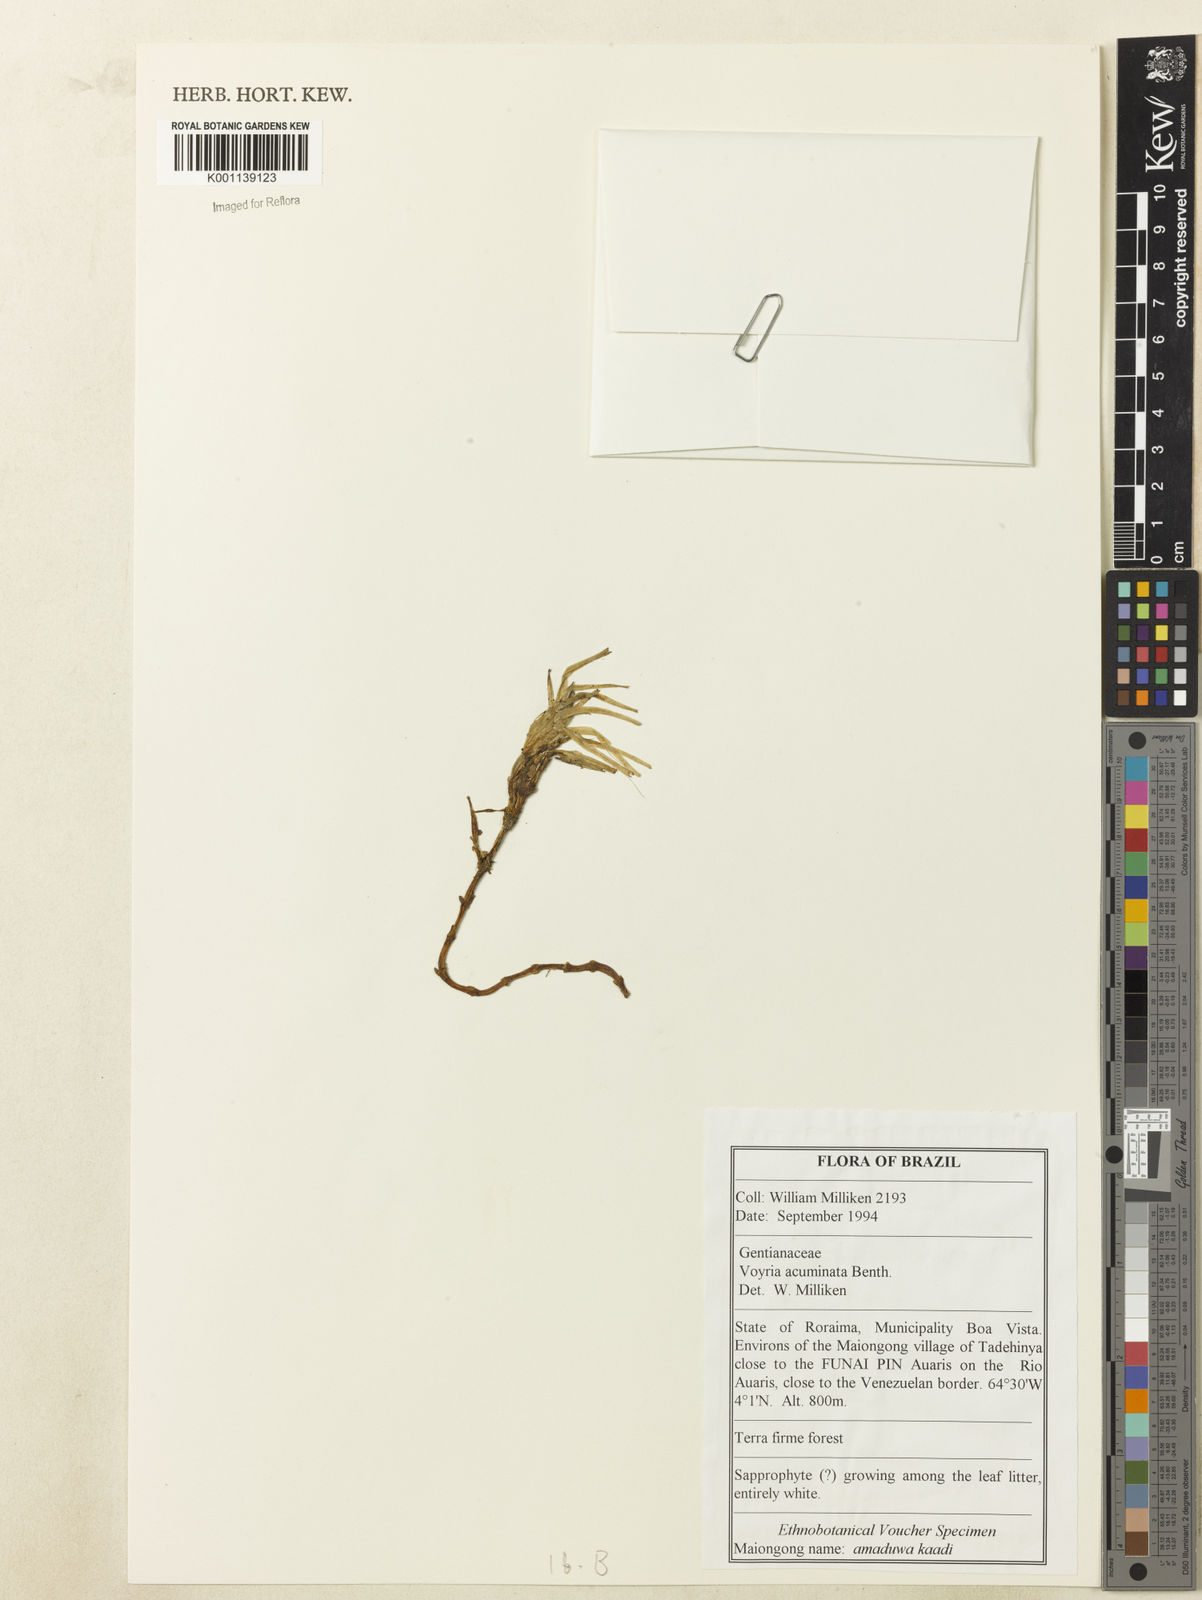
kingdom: Plantae
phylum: Tracheophyta
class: Magnoliopsida
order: Gentianales
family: Gentianaceae
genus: Voyria
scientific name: Voyria acuminata
